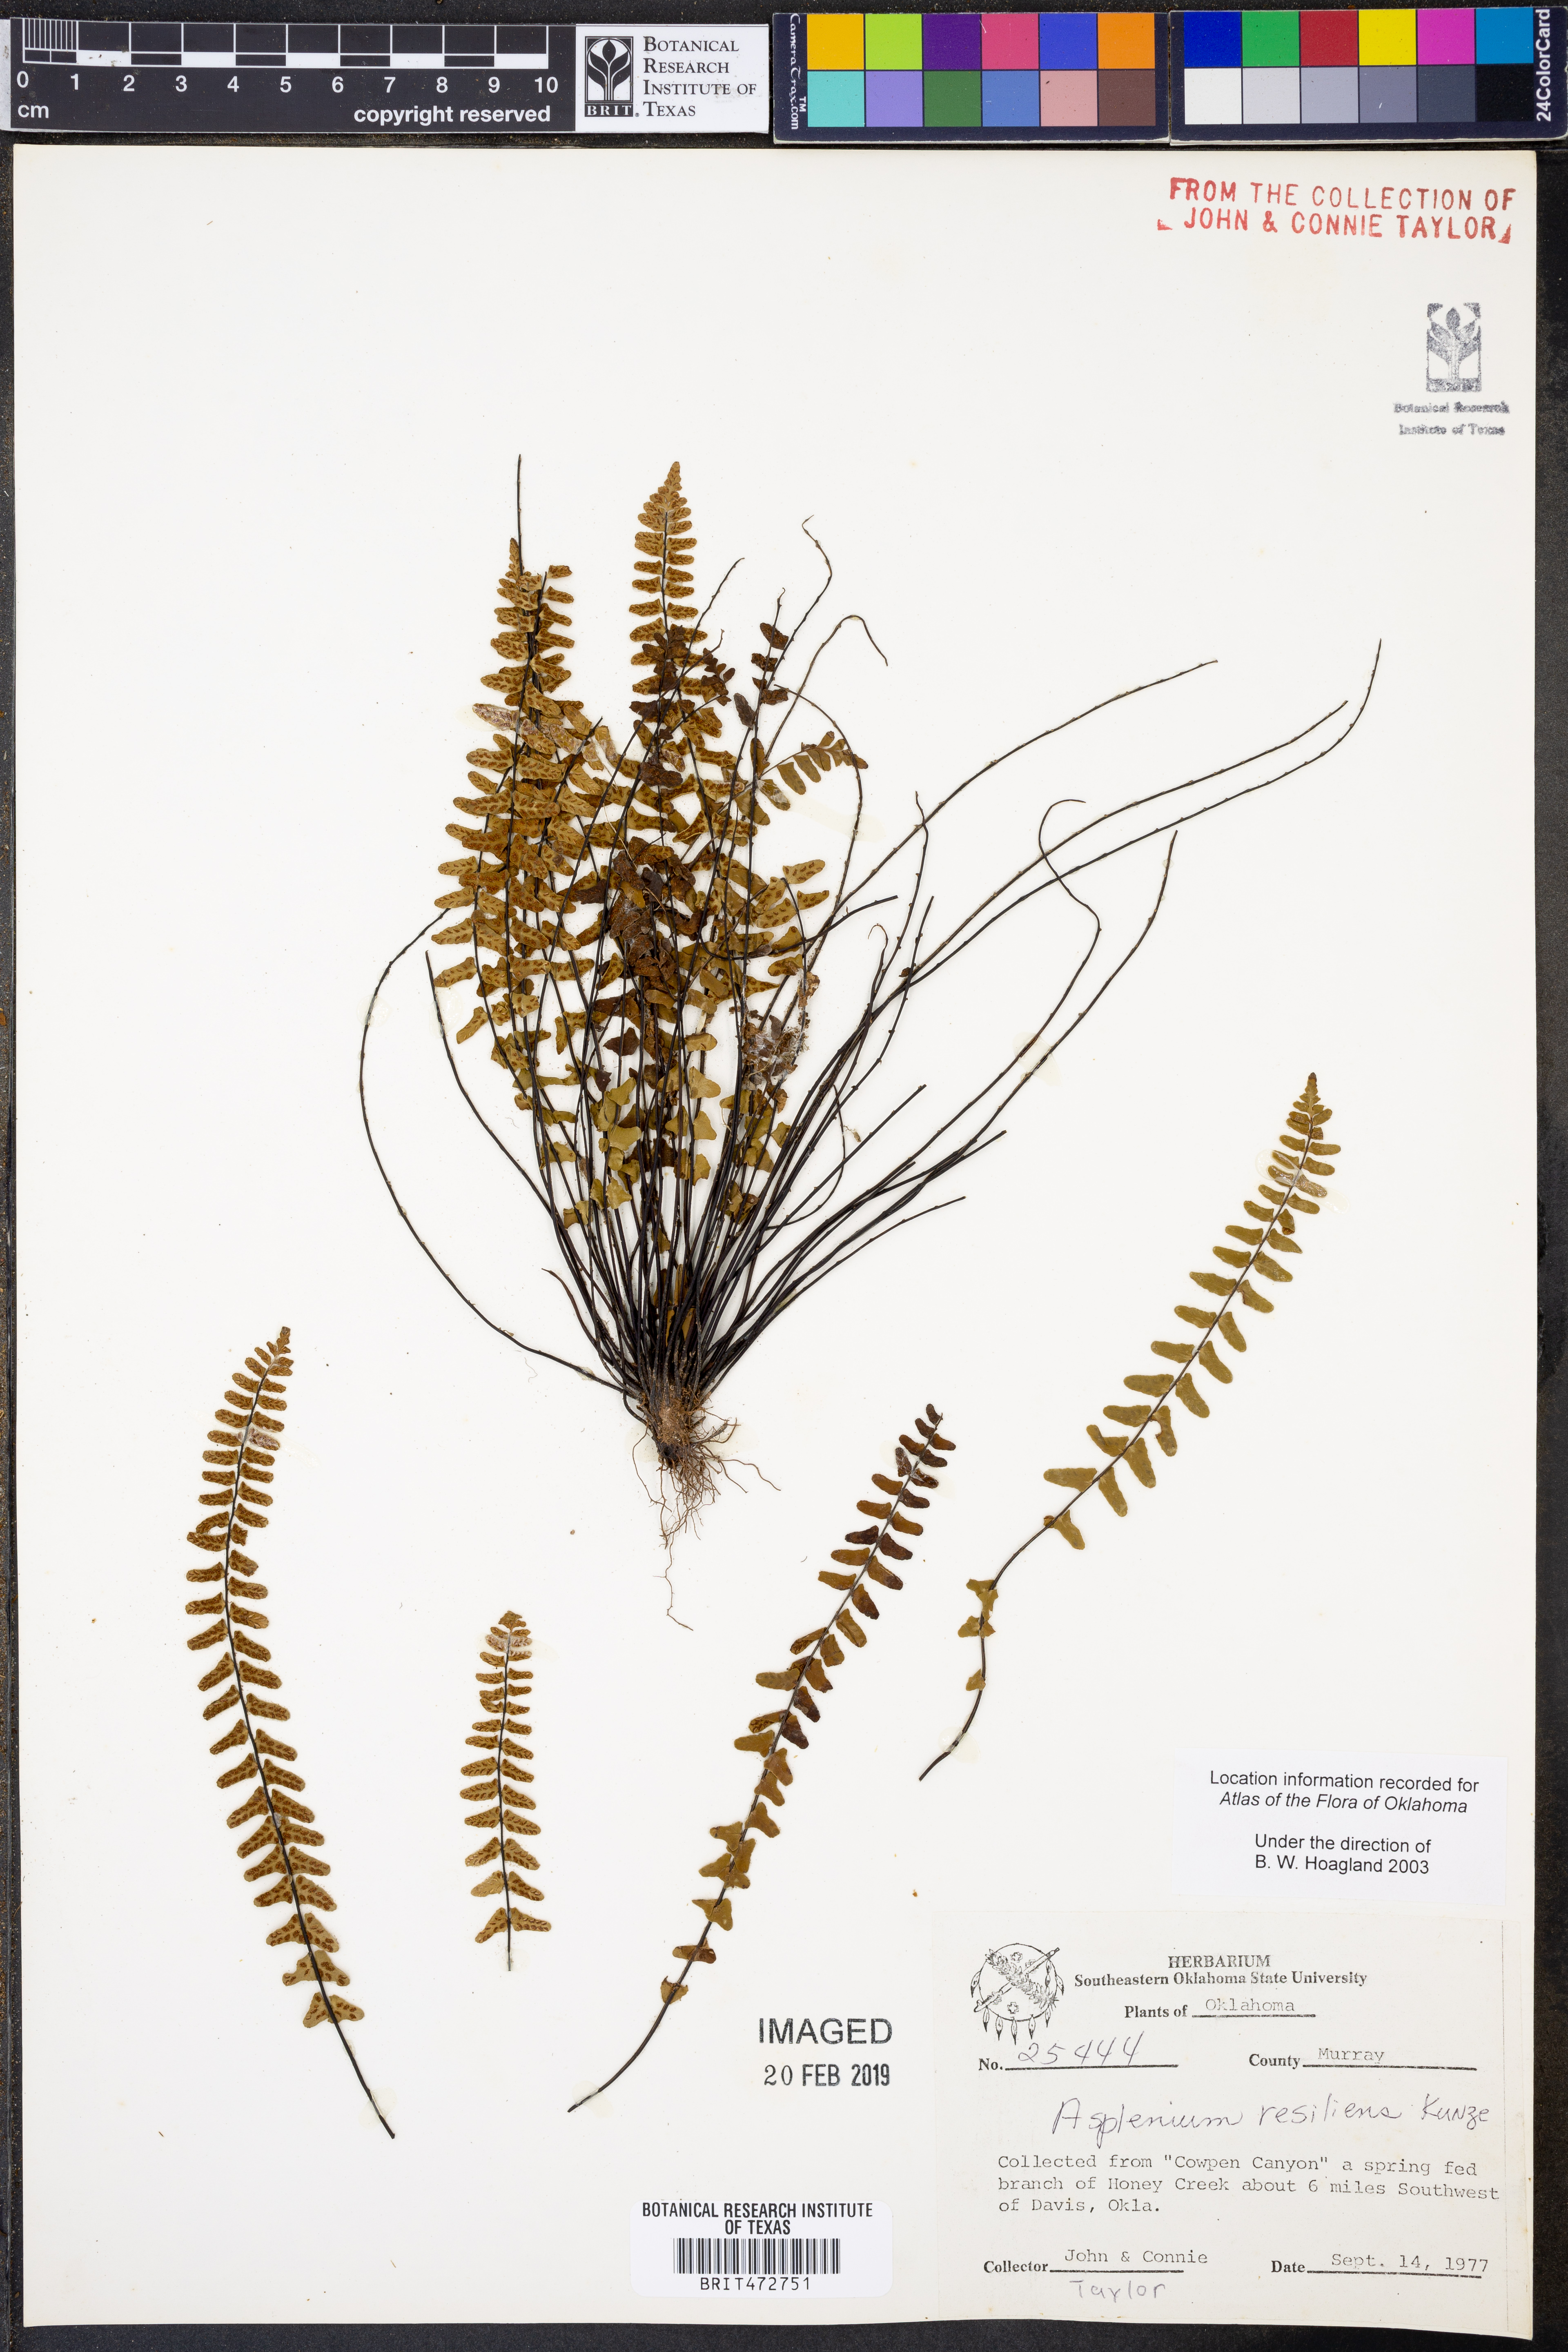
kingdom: Plantae
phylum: Tracheophyta
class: Polypodiopsida
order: Polypodiales
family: Aspleniaceae
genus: Asplenium
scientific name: Asplenium resiliens
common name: Blackstem spleenwort
